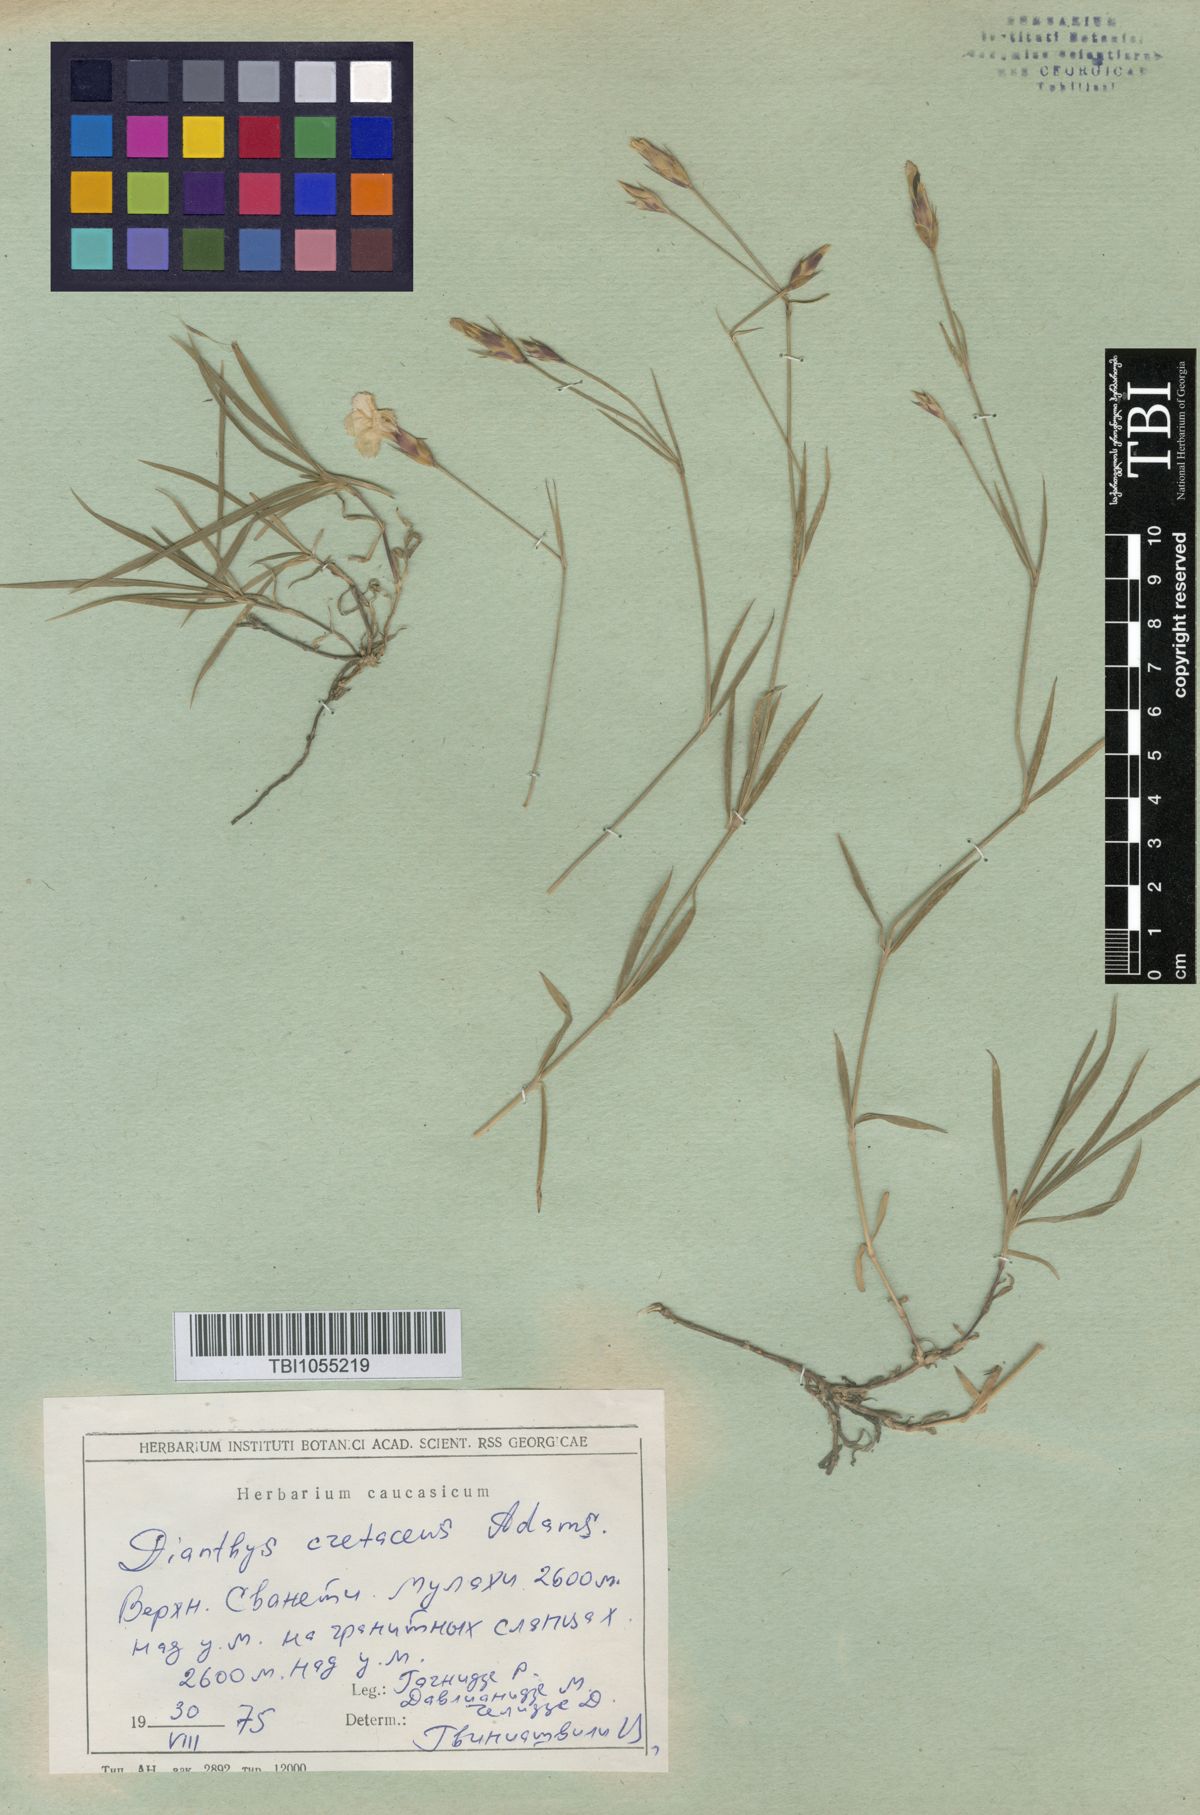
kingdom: Plantae
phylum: Tracheophyta
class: Magnoliopsida
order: Caryophyllales
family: Caryophyllaceae
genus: Dianthus
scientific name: Dianthus cretaceus
